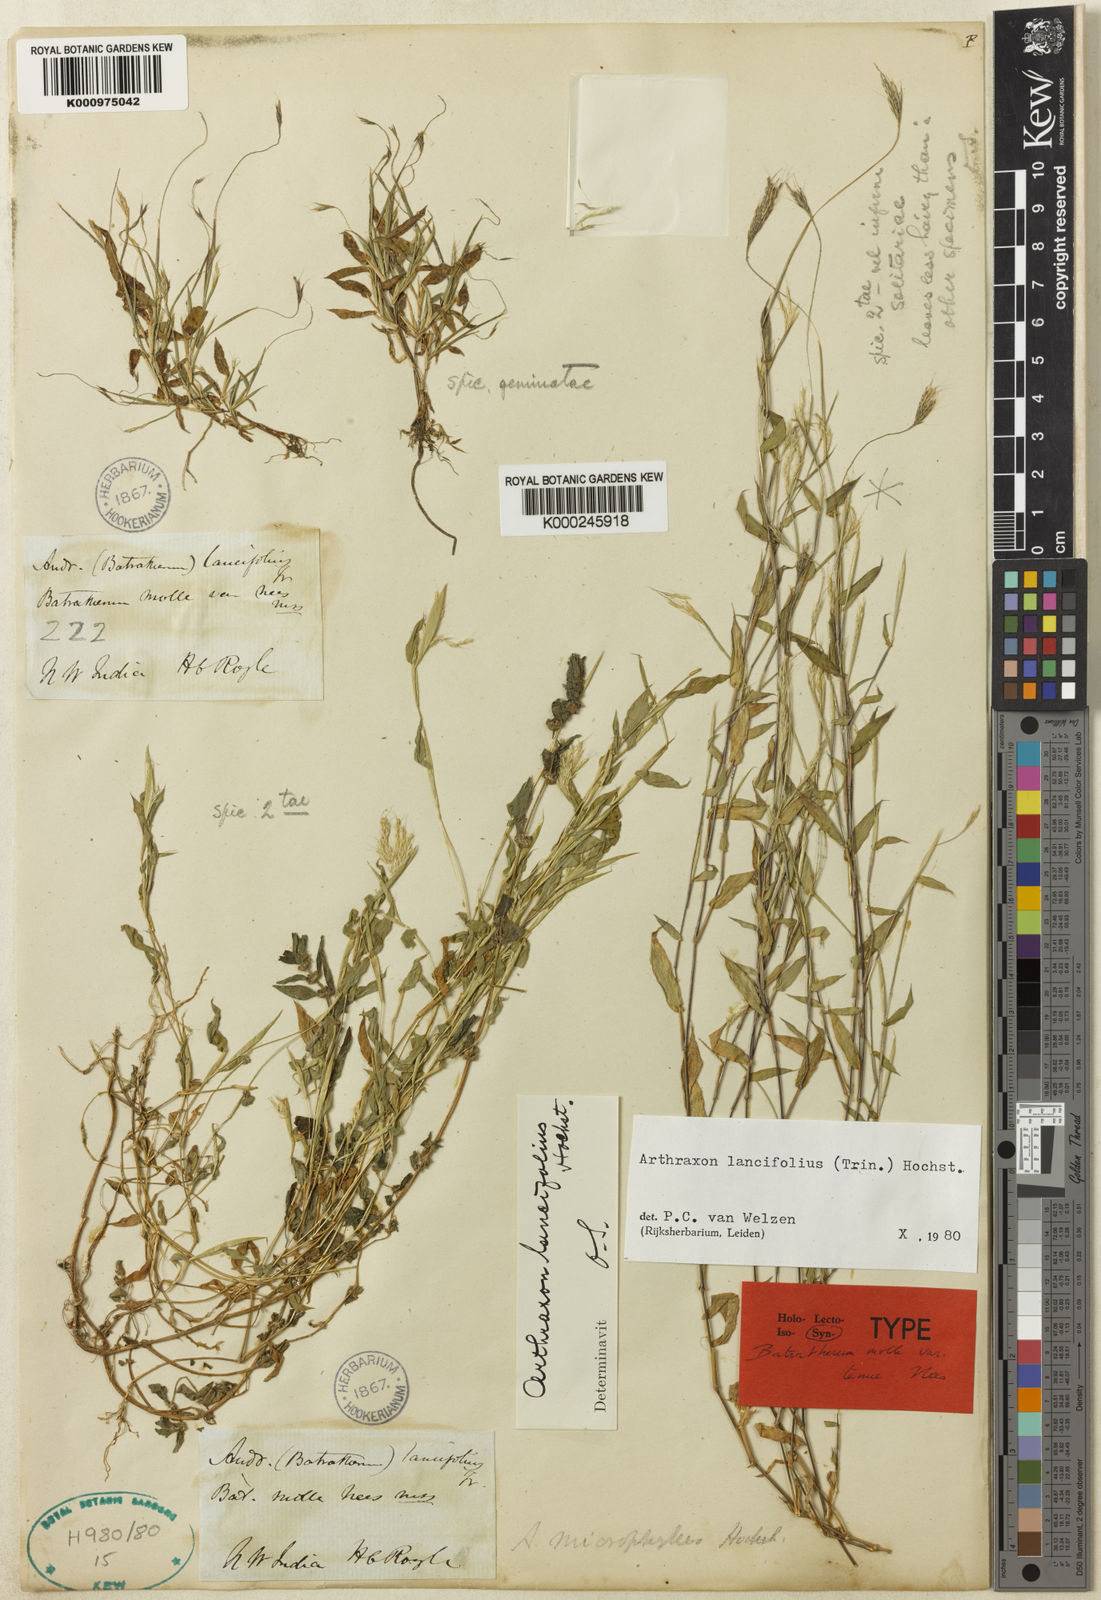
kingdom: Plantae
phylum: Tracheophyta
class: Liliopsida
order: Poales
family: Poaceae
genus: Arthraxon
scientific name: Arthraxon lancifolius
